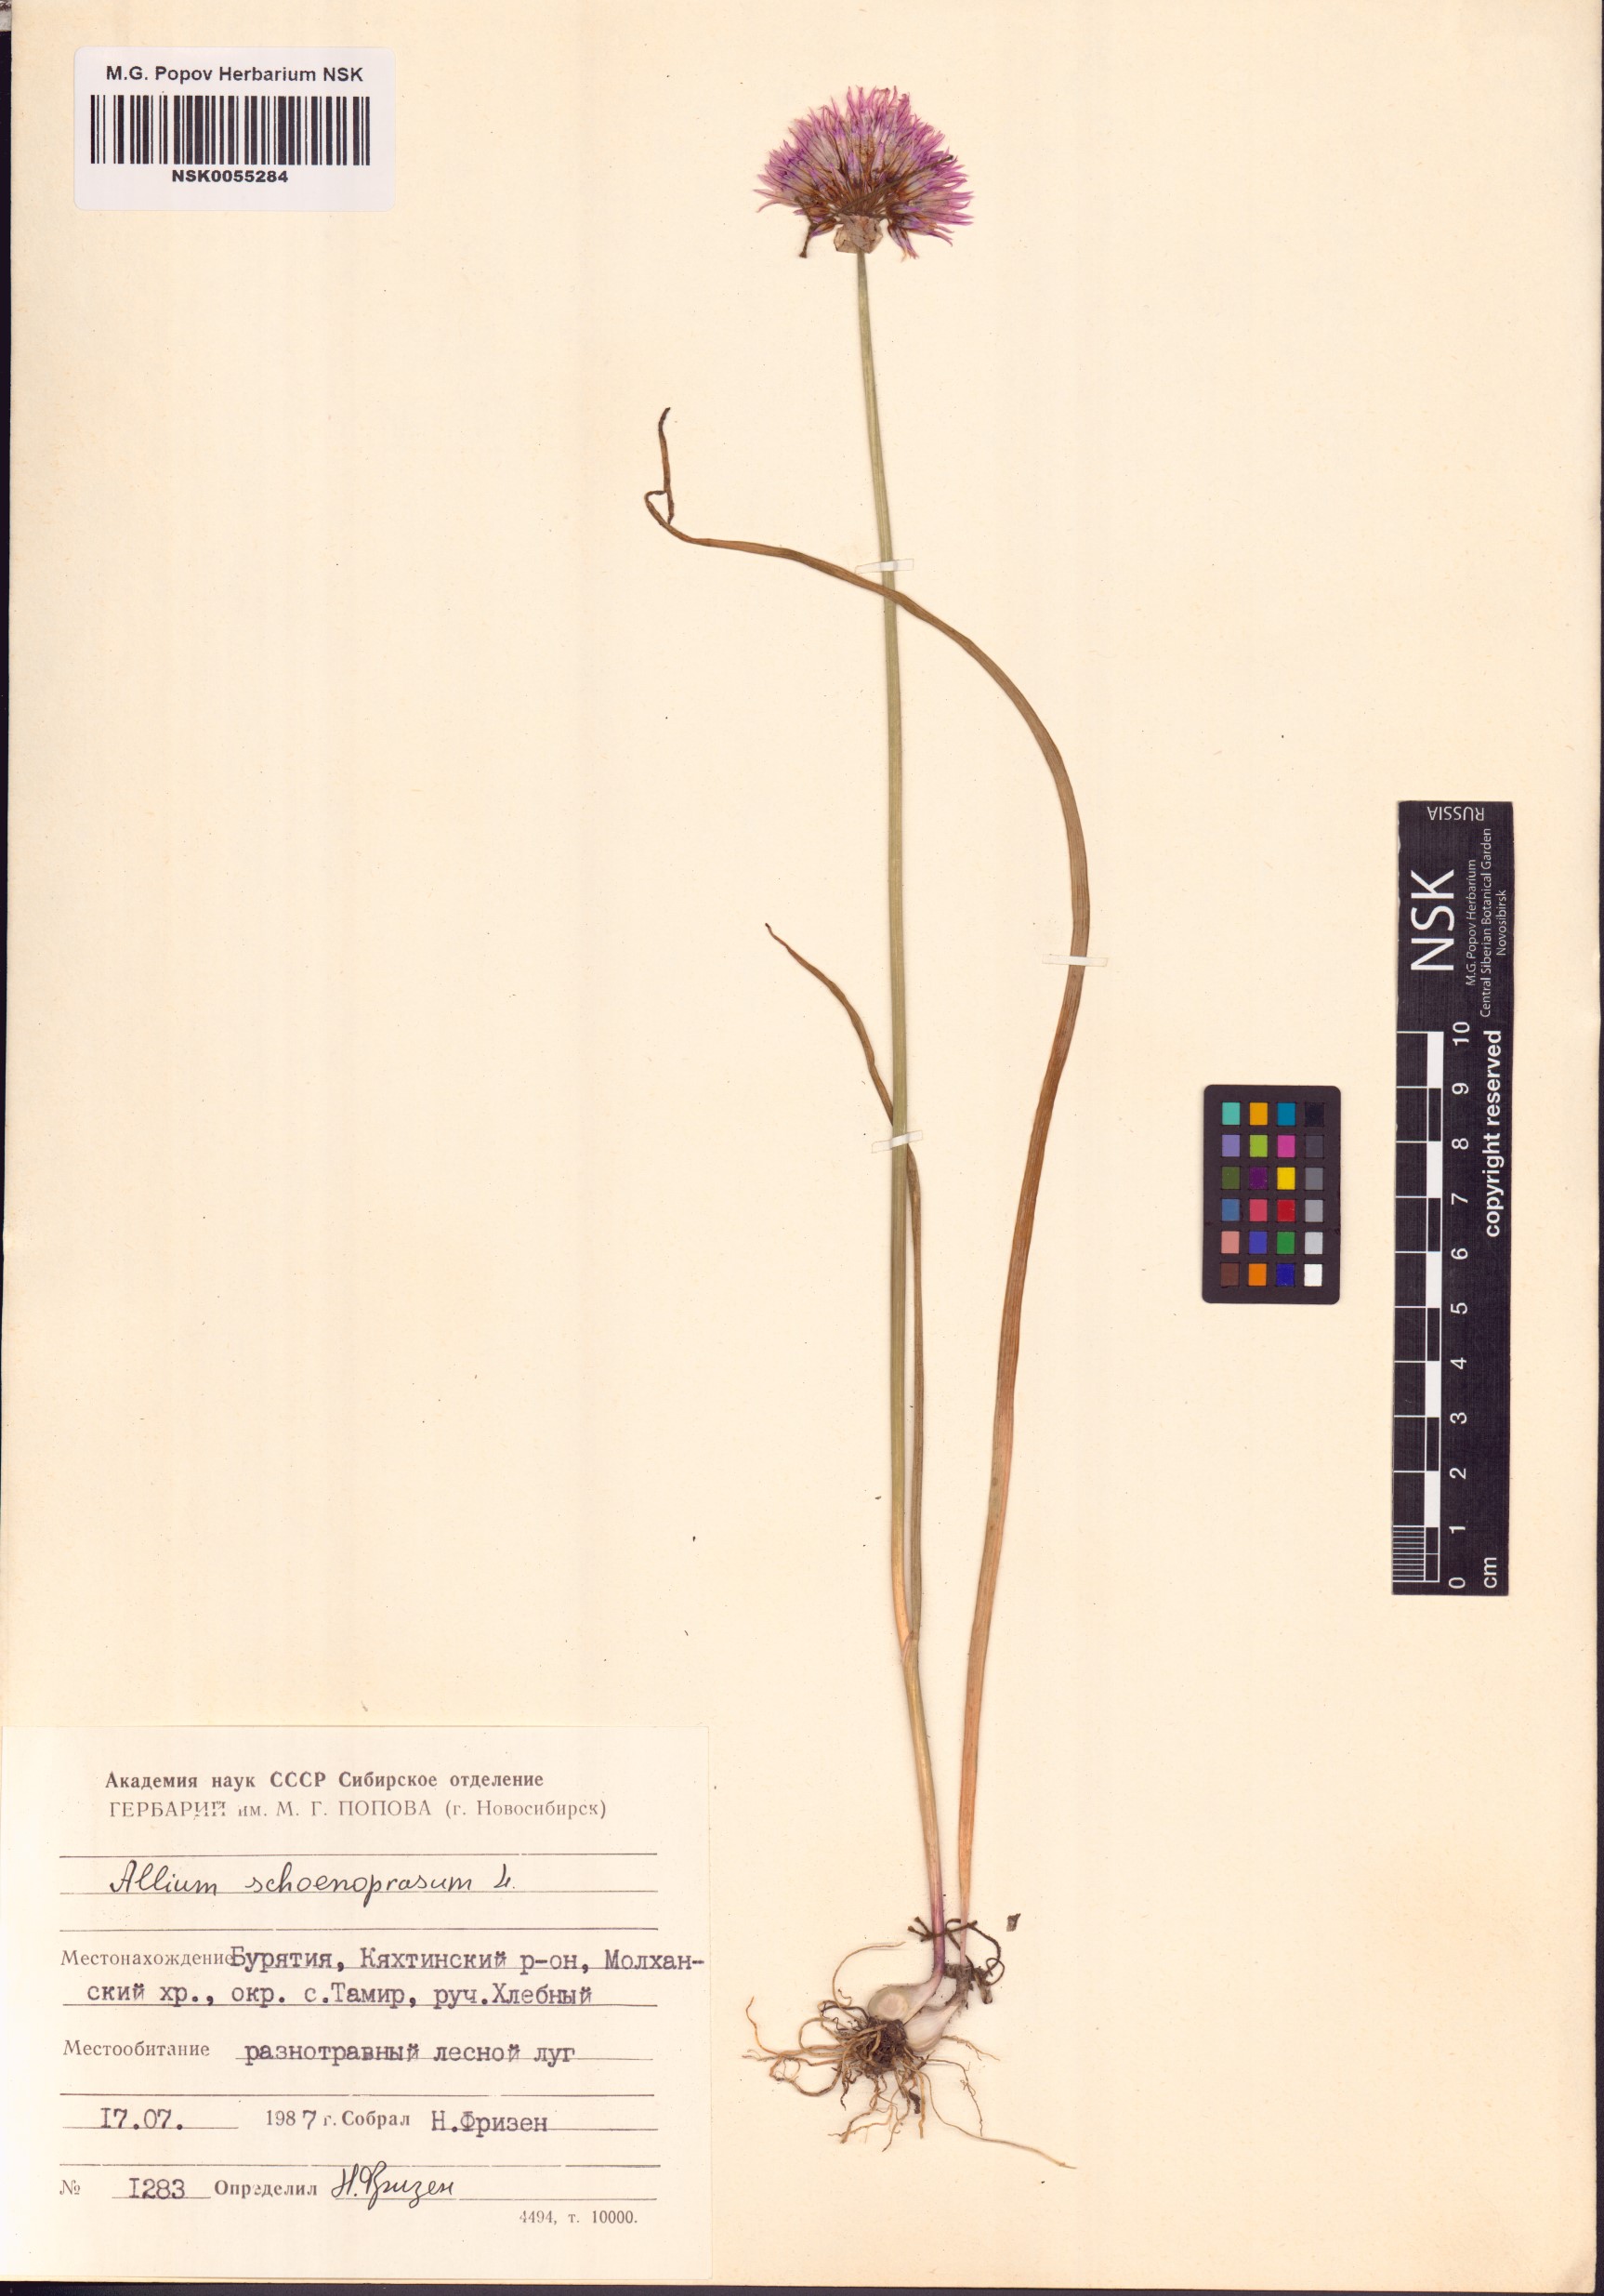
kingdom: Plantae
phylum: Tracheophyta
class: Liliopsida
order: Asparagales
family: Amaryllidaceae
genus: Allium
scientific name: Allium schoenoprasum
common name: Chives
